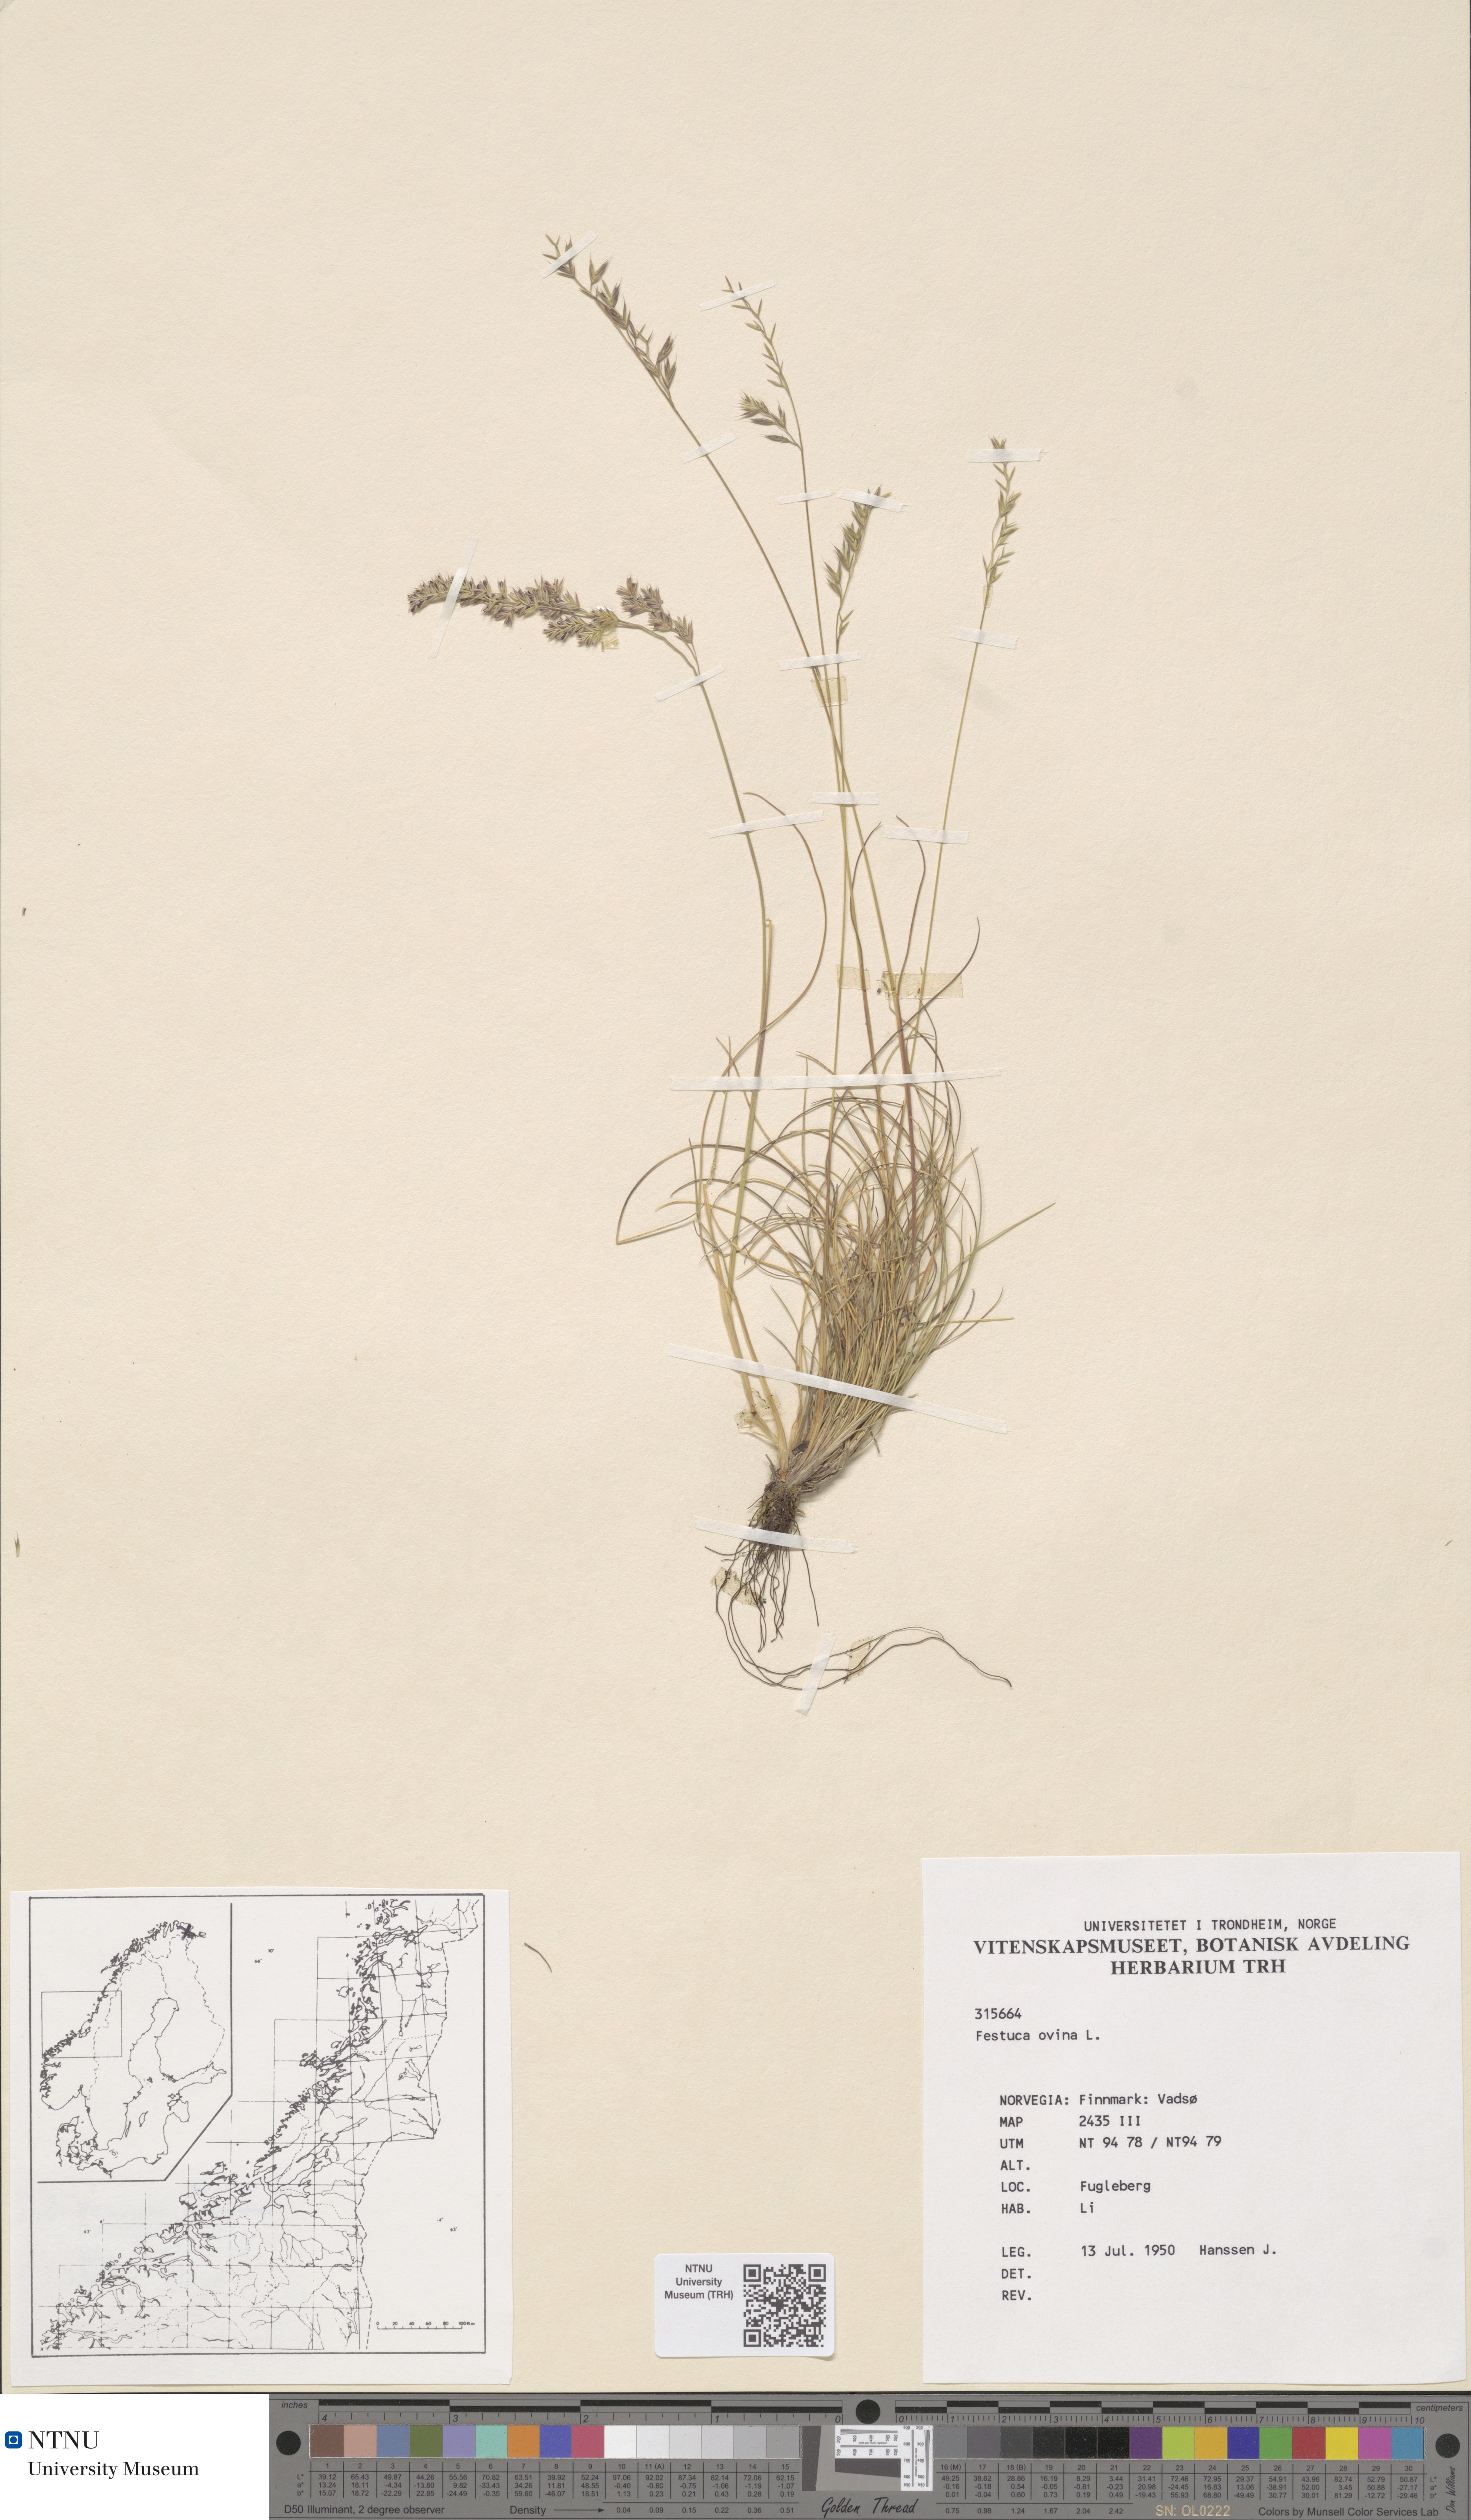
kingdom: Plantae
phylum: Tracheophyta
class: Liliopsida
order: Poales
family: Poaceae
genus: Festuca
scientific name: Festuca ovina
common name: Sheep fescue
